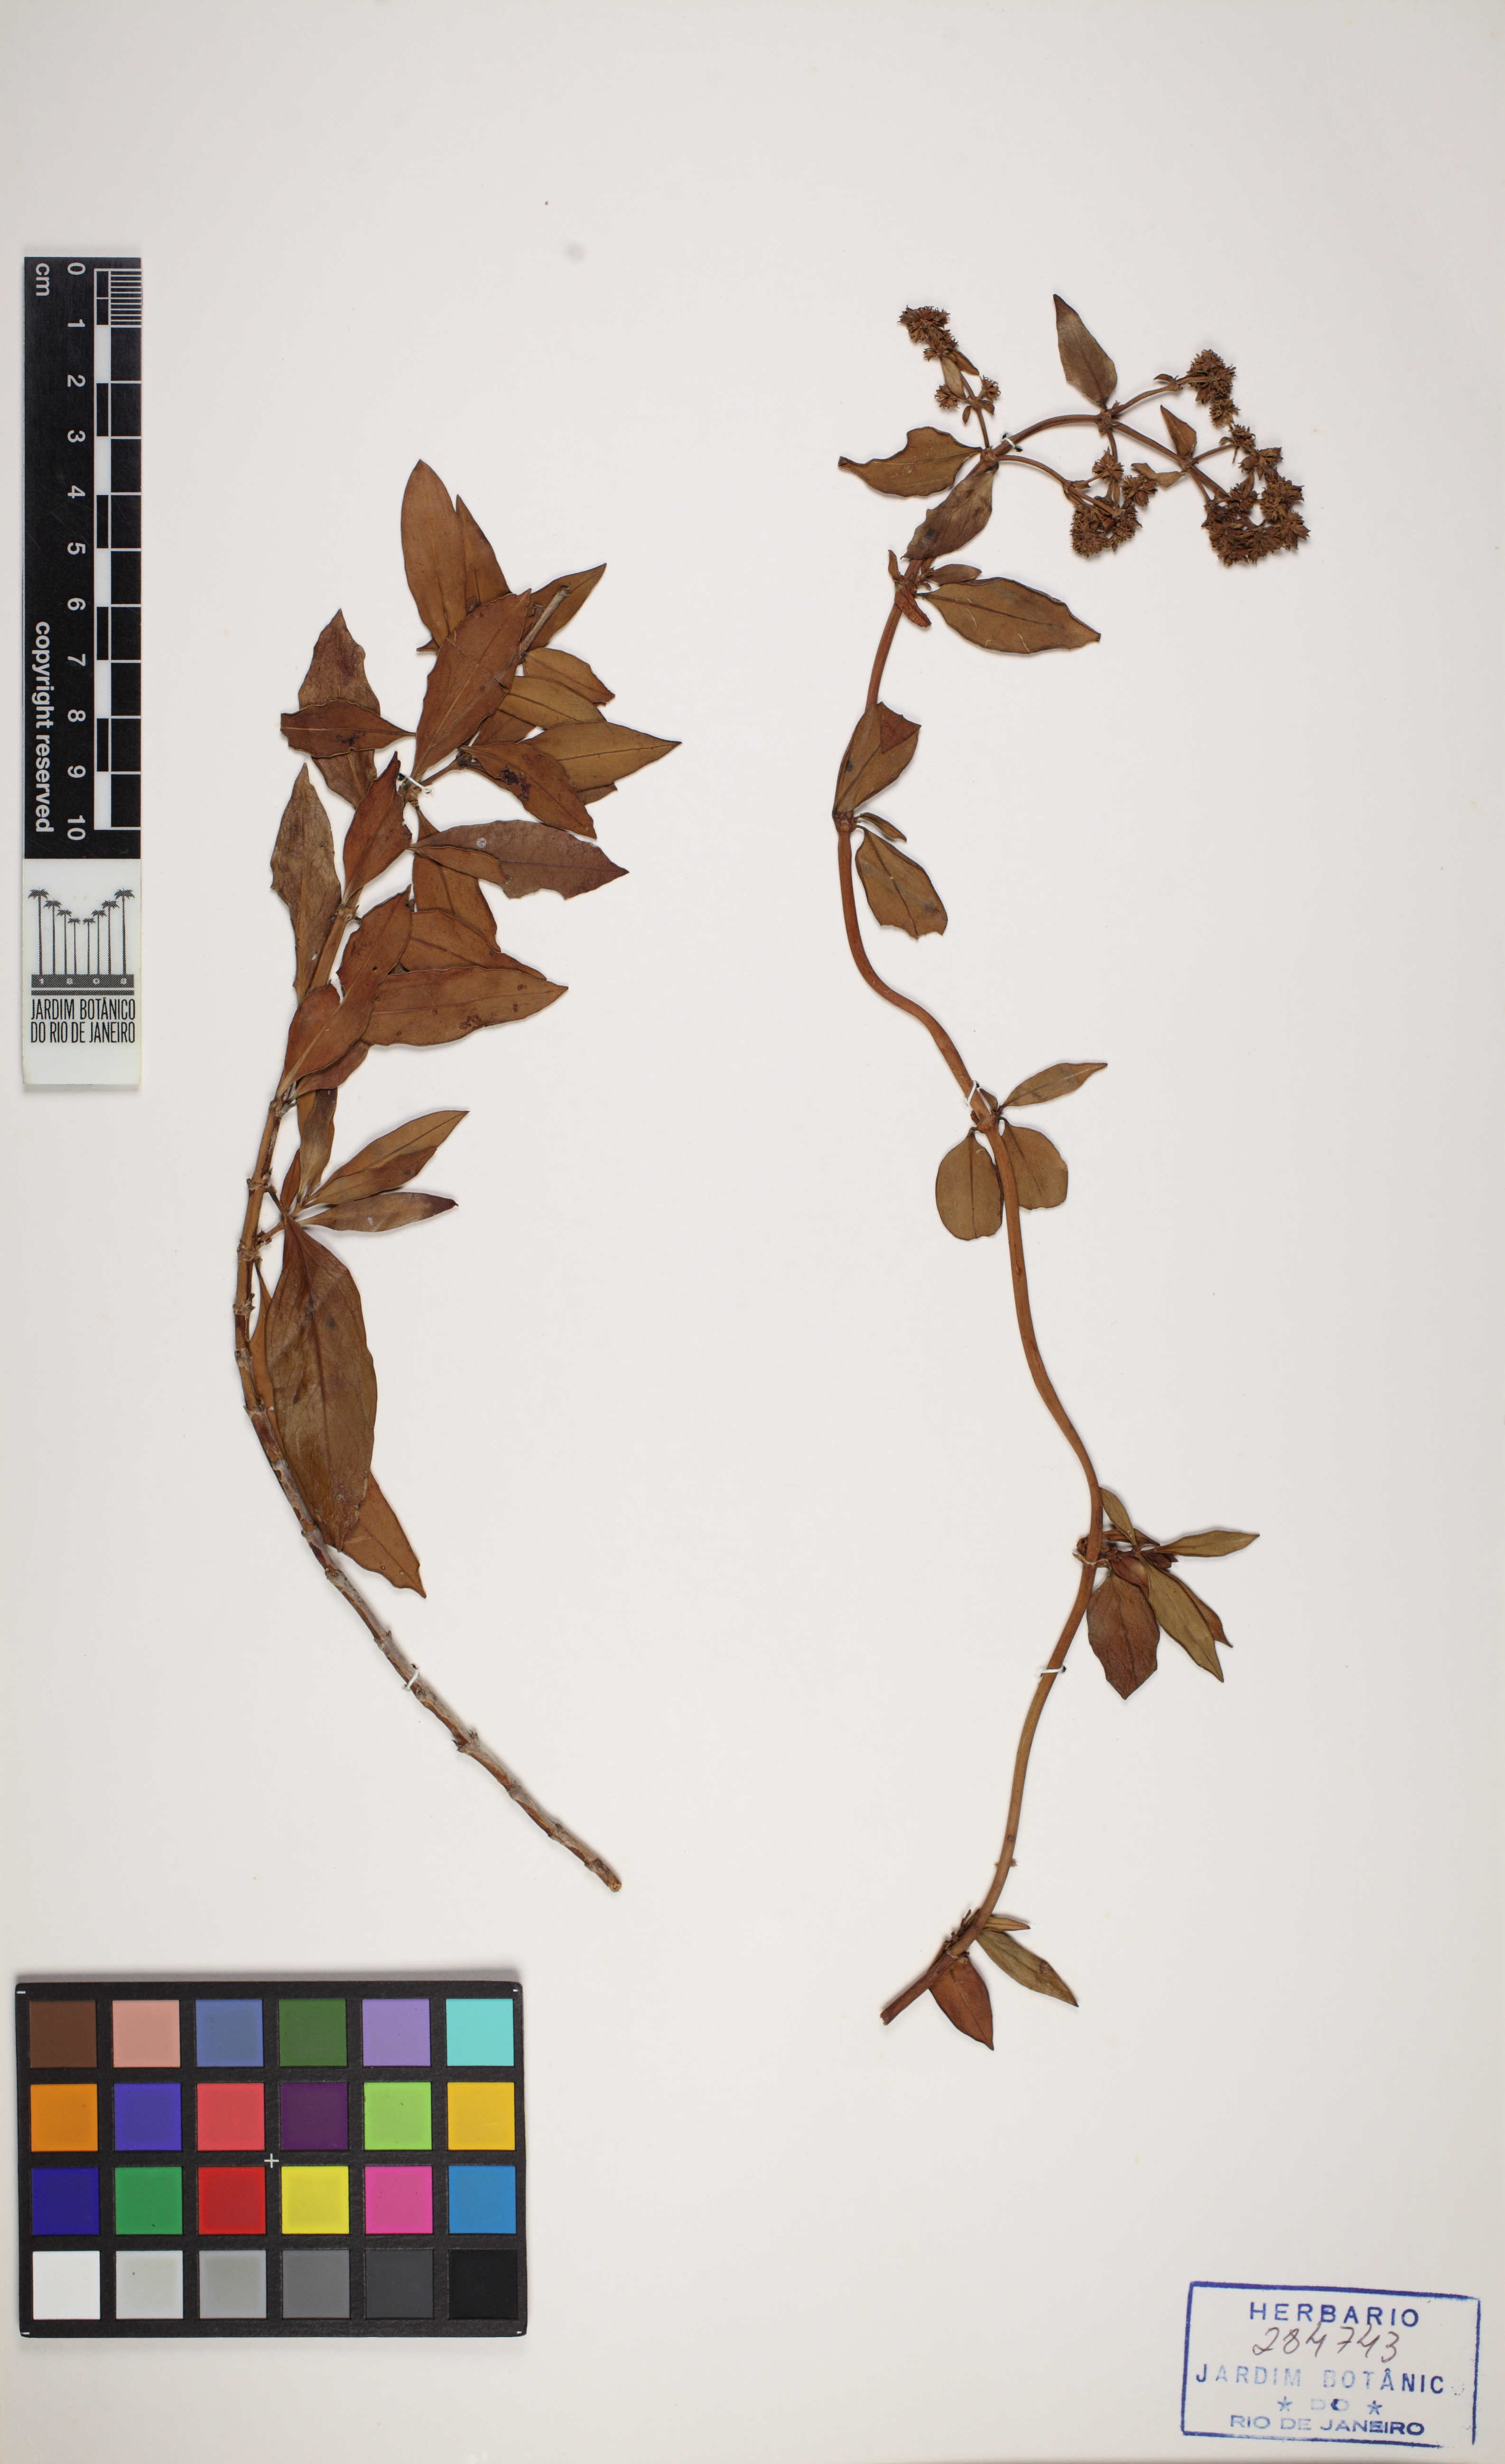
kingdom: Plantae
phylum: Tracheophyta
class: Magnoliopsida
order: Gentianales
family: Rubiaceae
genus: Denscantia
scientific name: Denscantia monodon
